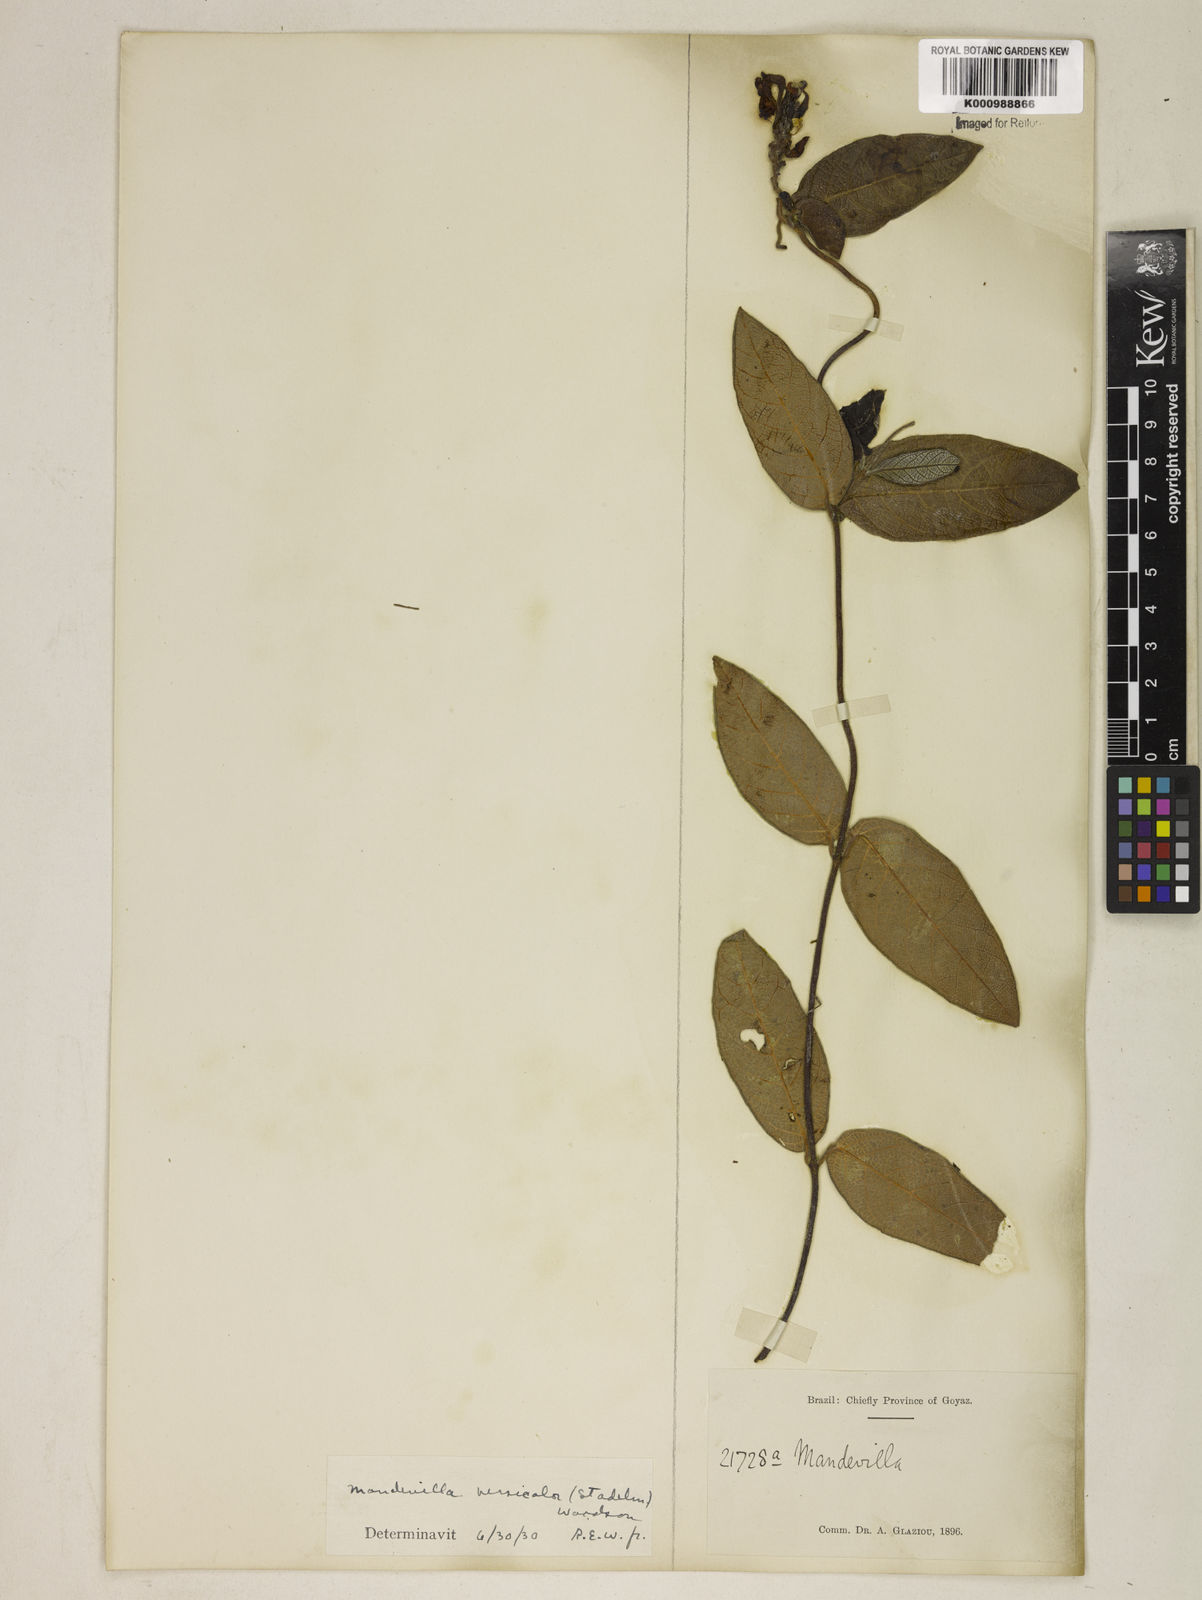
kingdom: Plantae
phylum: Tracheophyta
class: Magnoliopsida
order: Gentianales
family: Apocynaceae
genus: Mandevilla
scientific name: Mandevilla scabra
